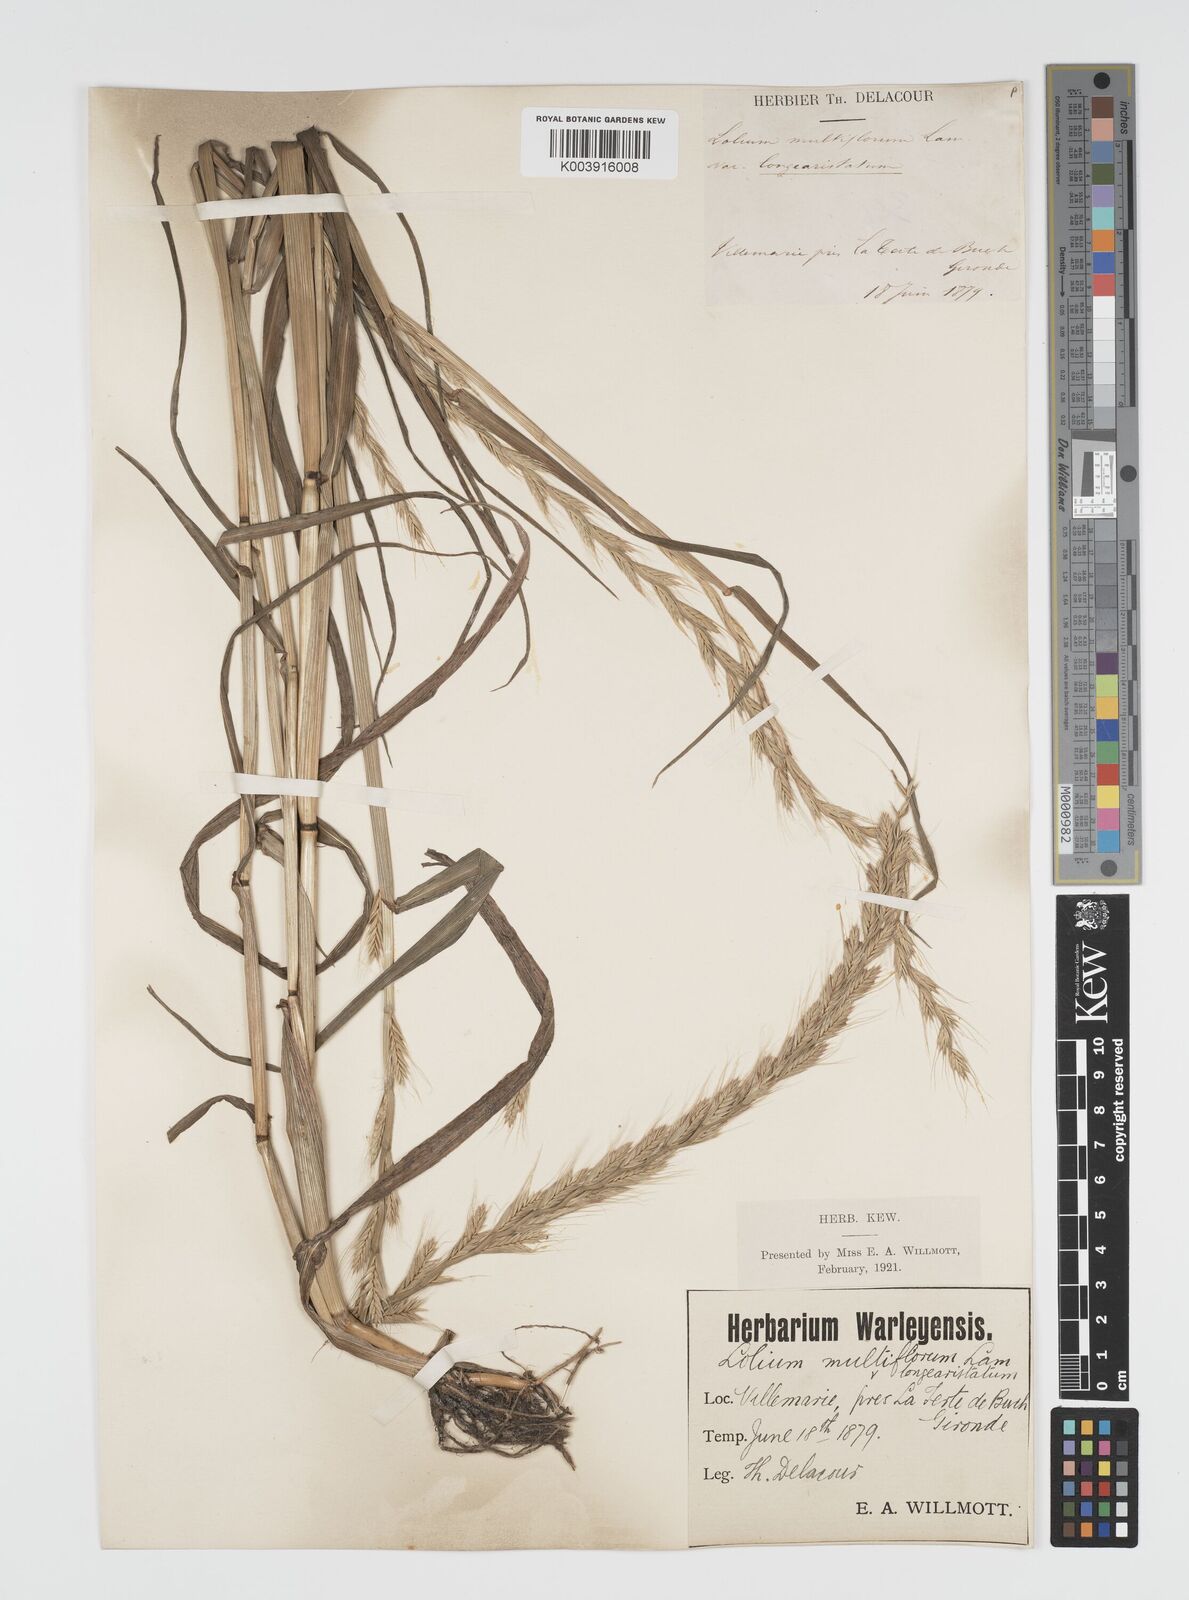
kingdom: Plantae
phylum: Tracheophyta
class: Liliopsida
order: Poales
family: Poaceae
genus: Lolium
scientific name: Lolium multiflorum
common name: Annual ryegrass
